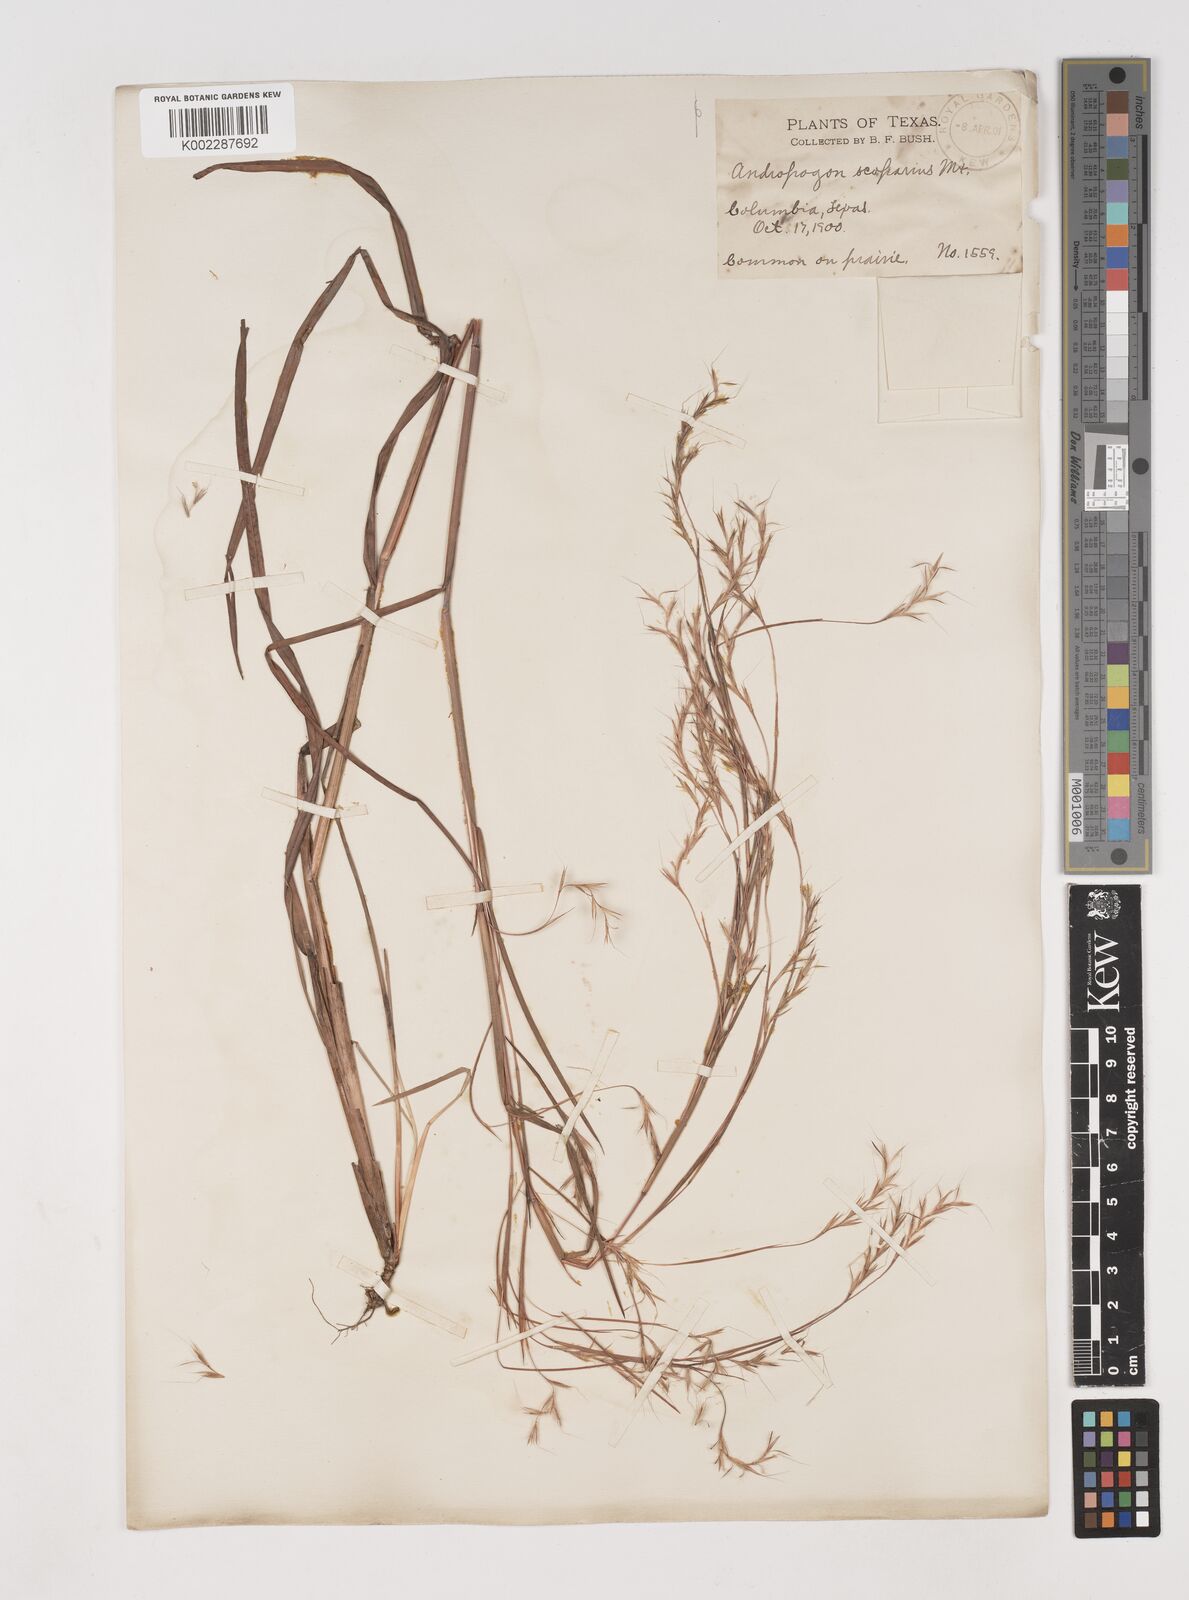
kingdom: Plantae
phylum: Tracheophyta
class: Liliopsida
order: Poales
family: Poaceae
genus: Schizachyrium
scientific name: Schizachyrium scoparium
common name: Little bluestem
